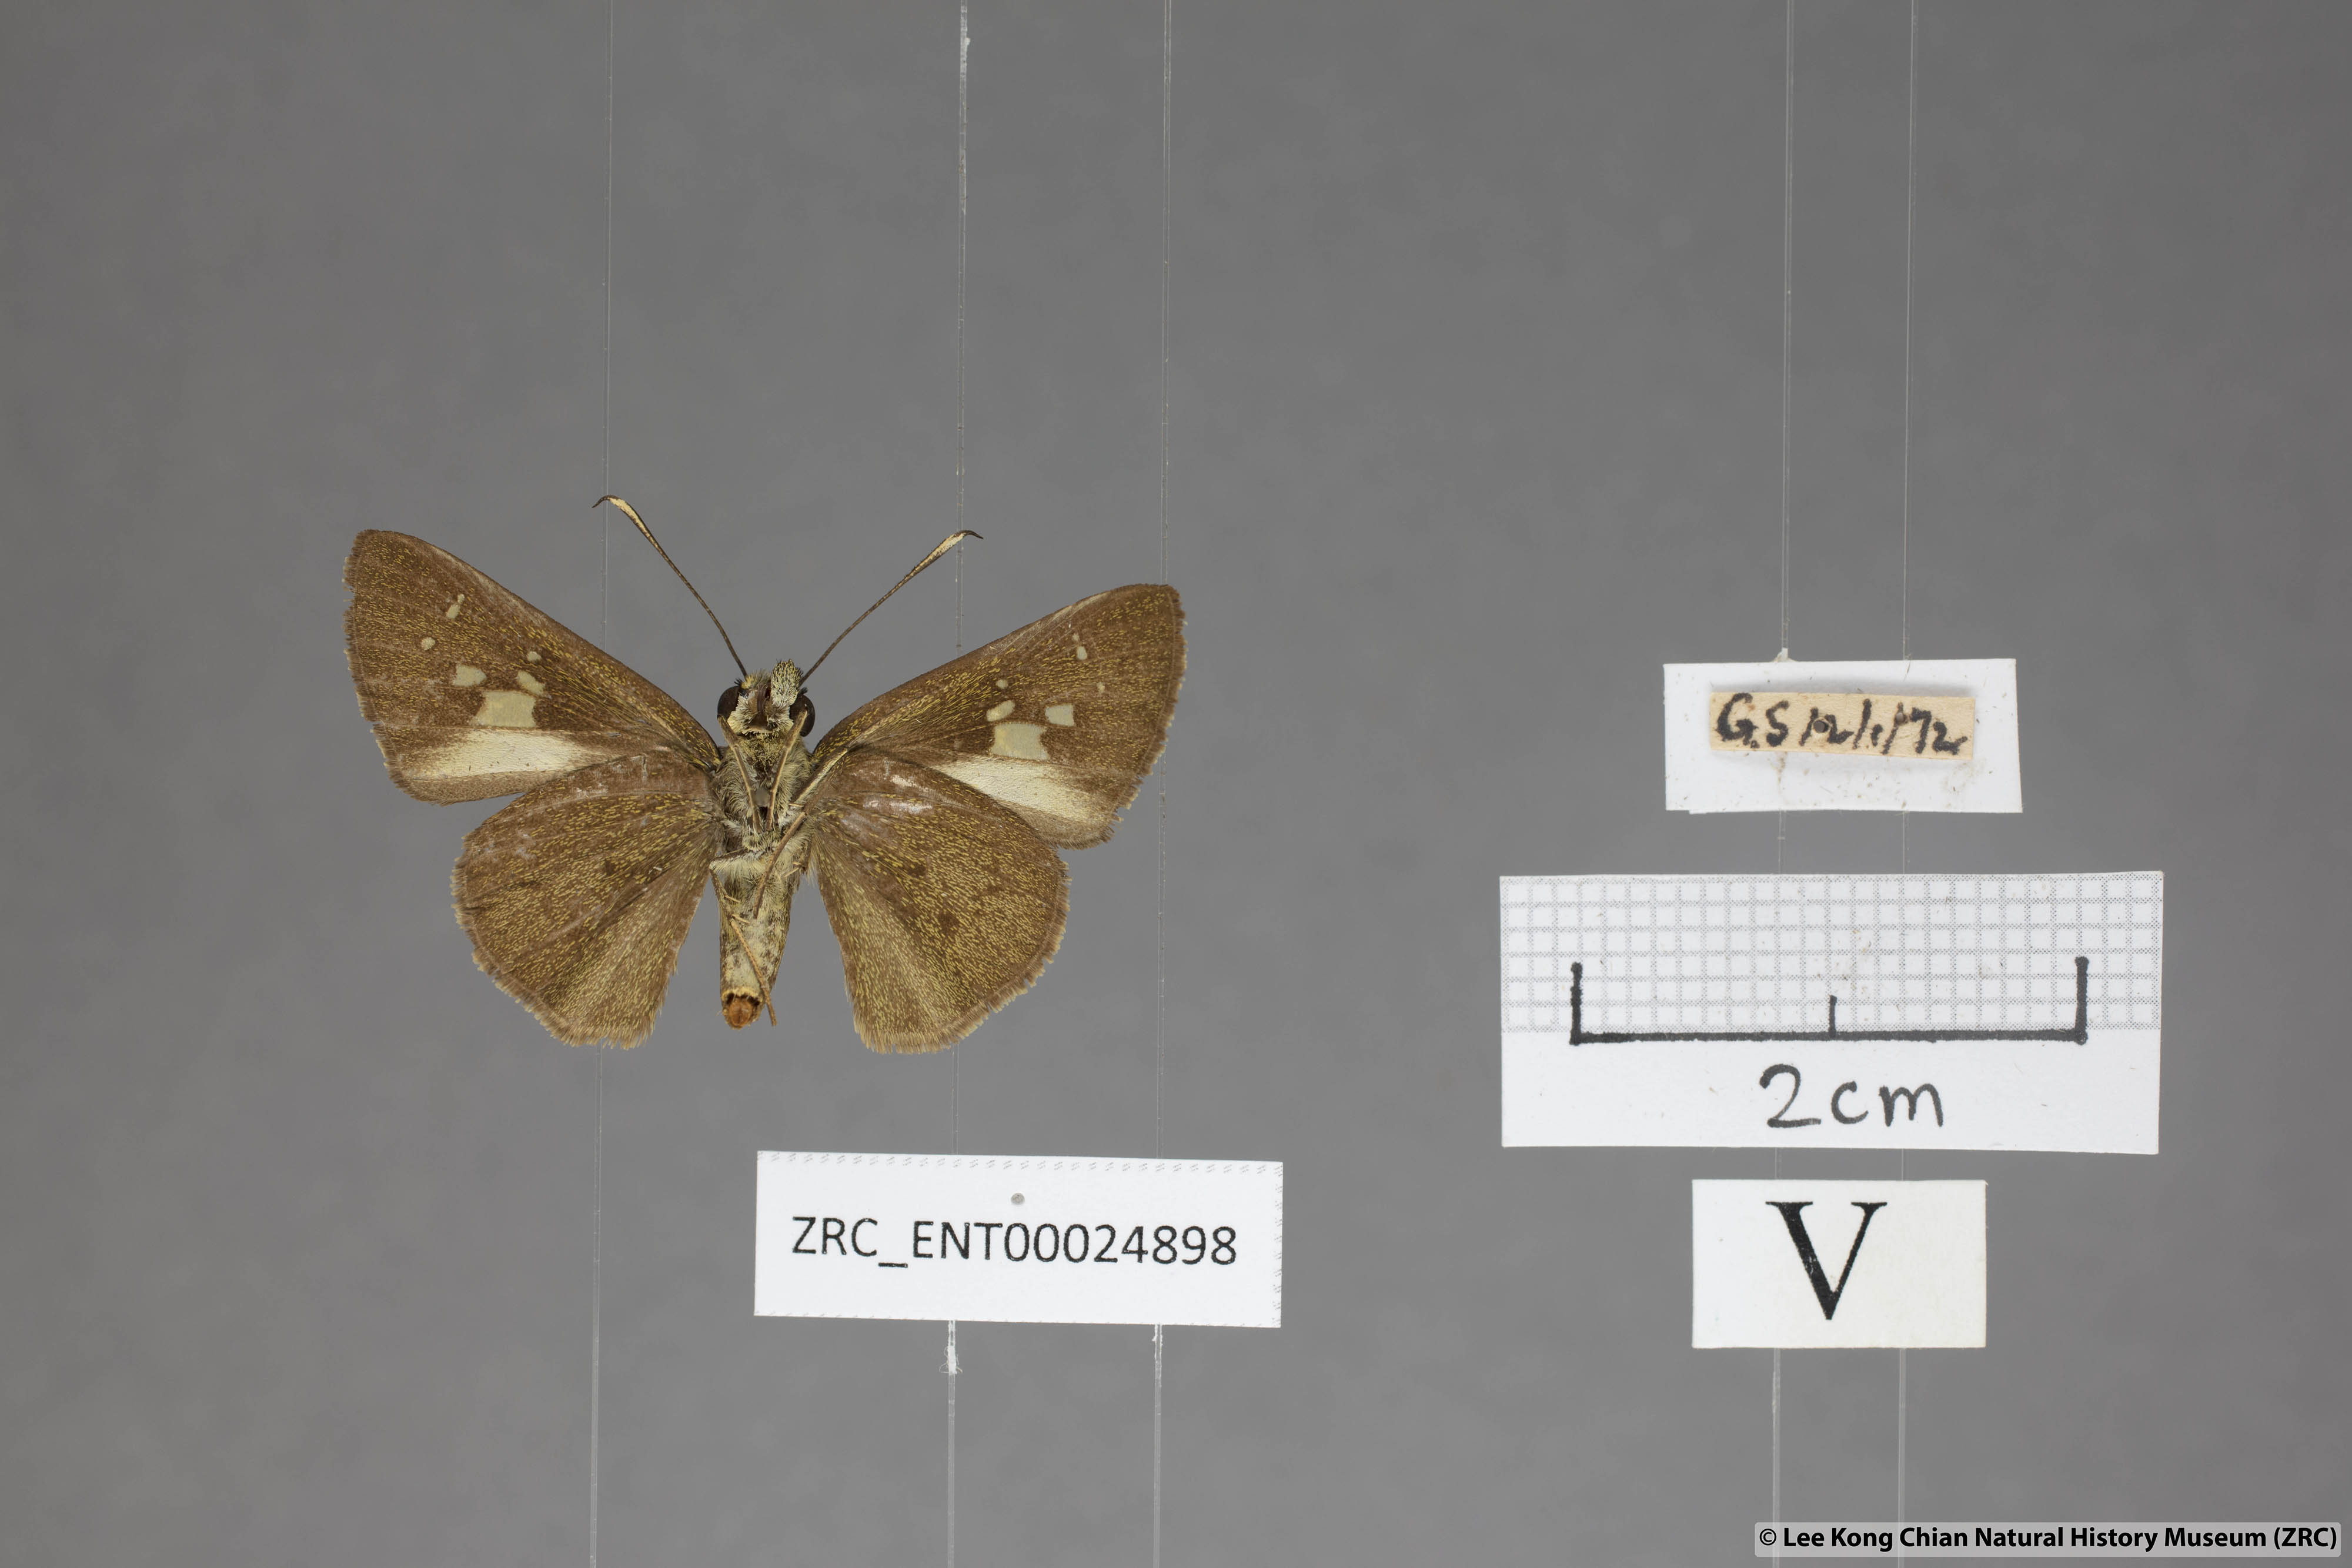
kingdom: Animalia
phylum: Arthropoda
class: Insecta
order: Lepidoptera
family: Hesperiidae
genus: Isma
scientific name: Isma
